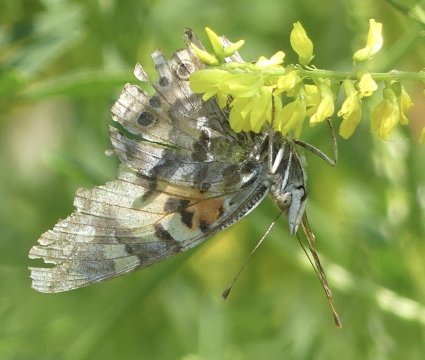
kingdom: Animalia
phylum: Arthropoda
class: Insecta
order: Lepidoptera
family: Nymphalidae
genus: Vanessa
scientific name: Vanessa cardui
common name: Painted Lady
